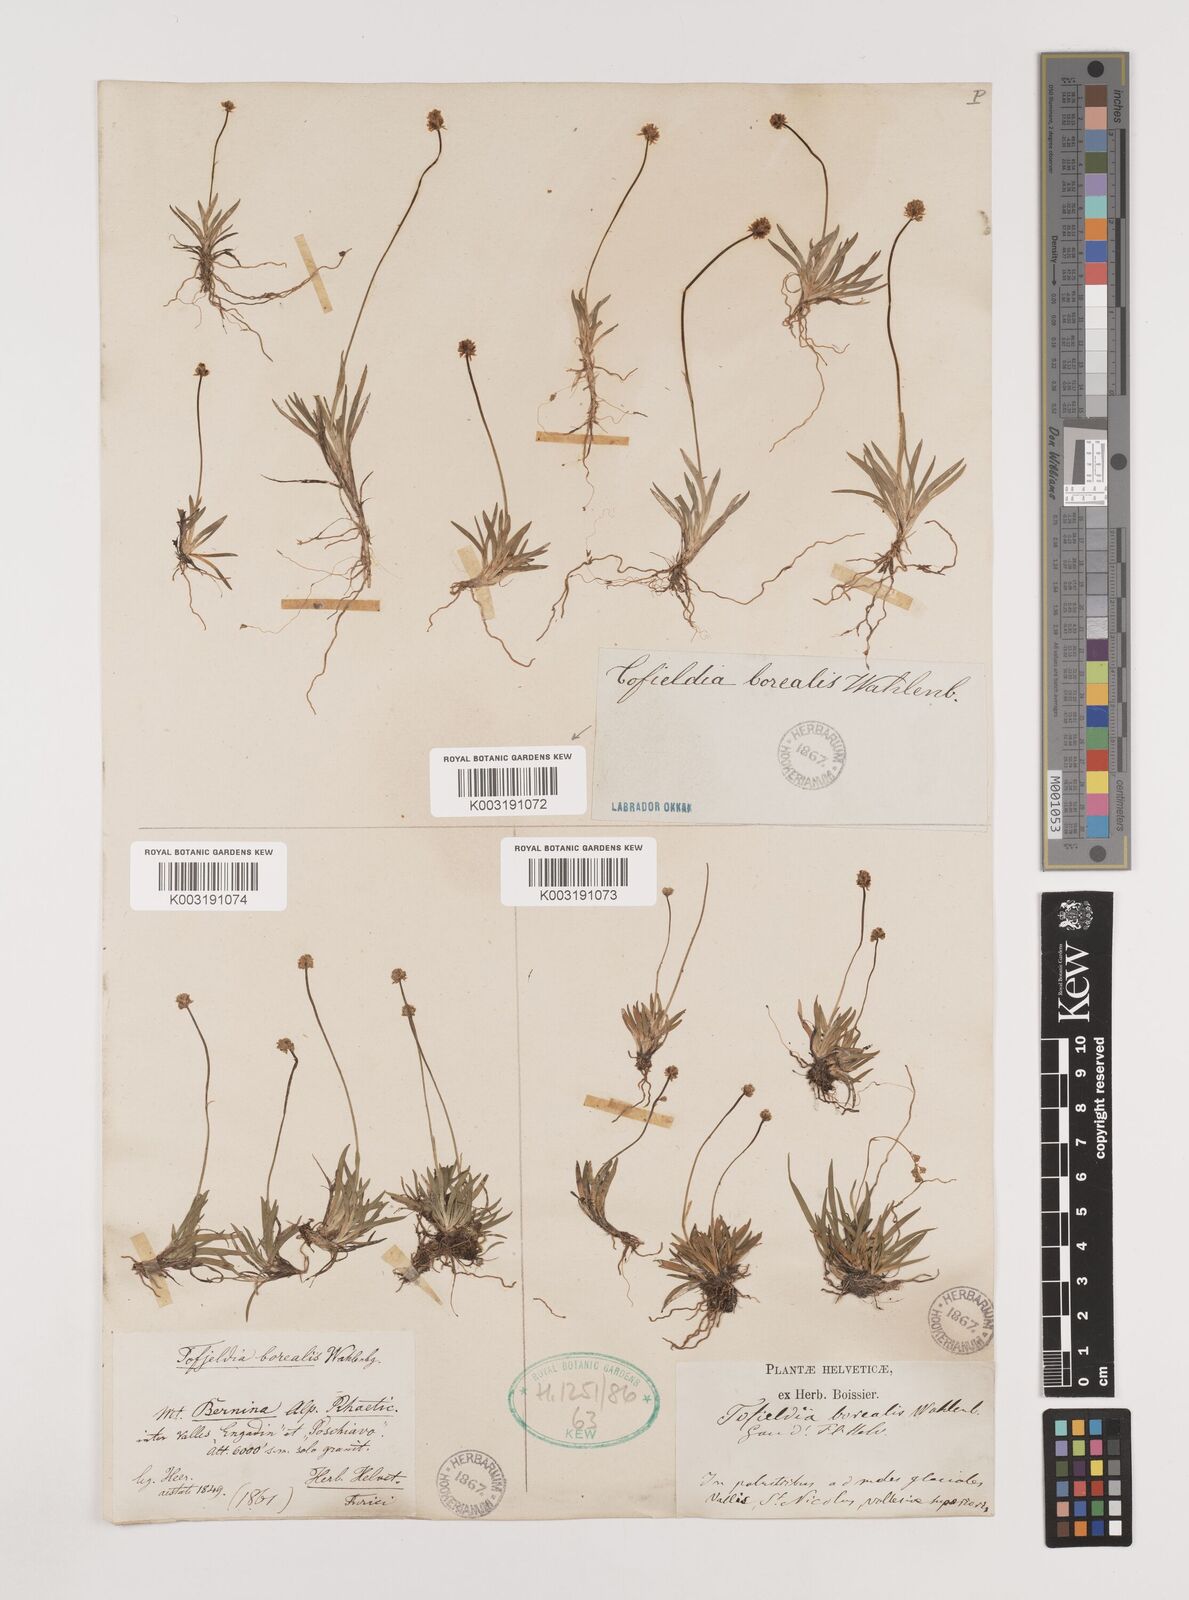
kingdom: Plantae
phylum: Tracheophyta
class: Liliopsida
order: Alismatales
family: Tofieldiaceae
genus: Tofieldia
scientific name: Tofieldia pusilla
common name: Scottish false asphodel
